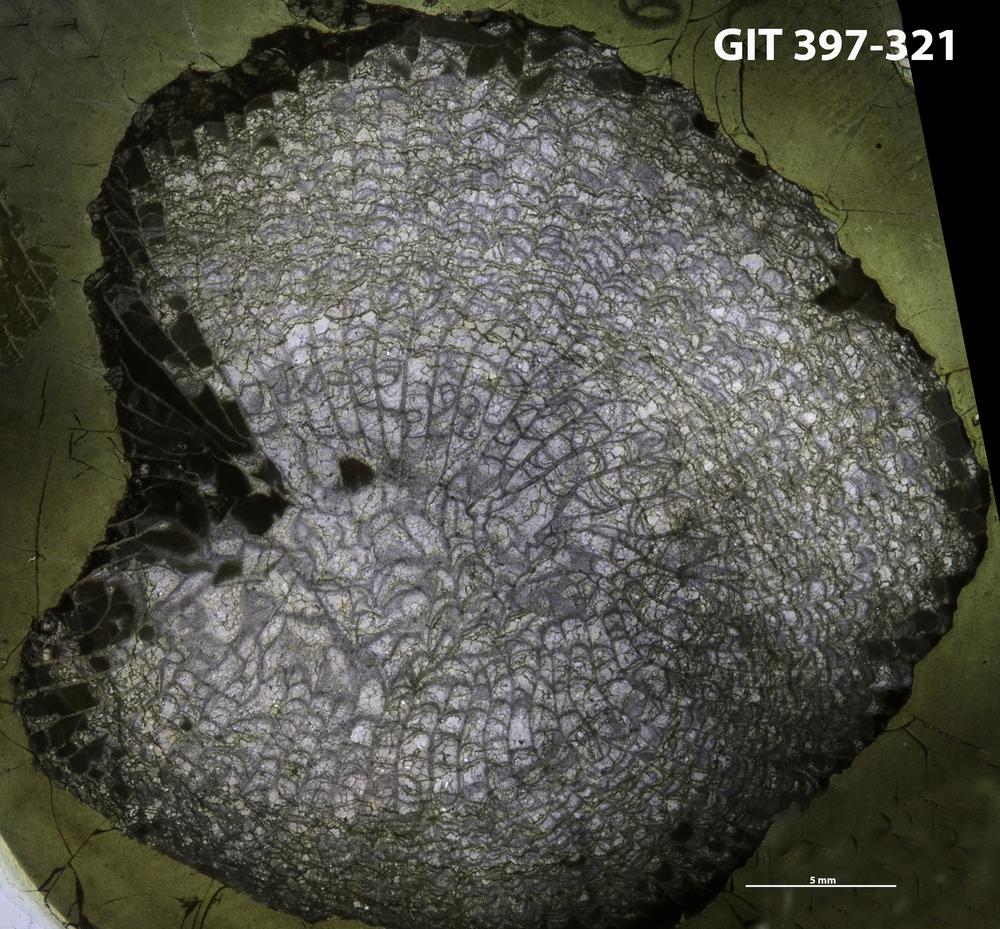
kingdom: Animalia
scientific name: Animalia
